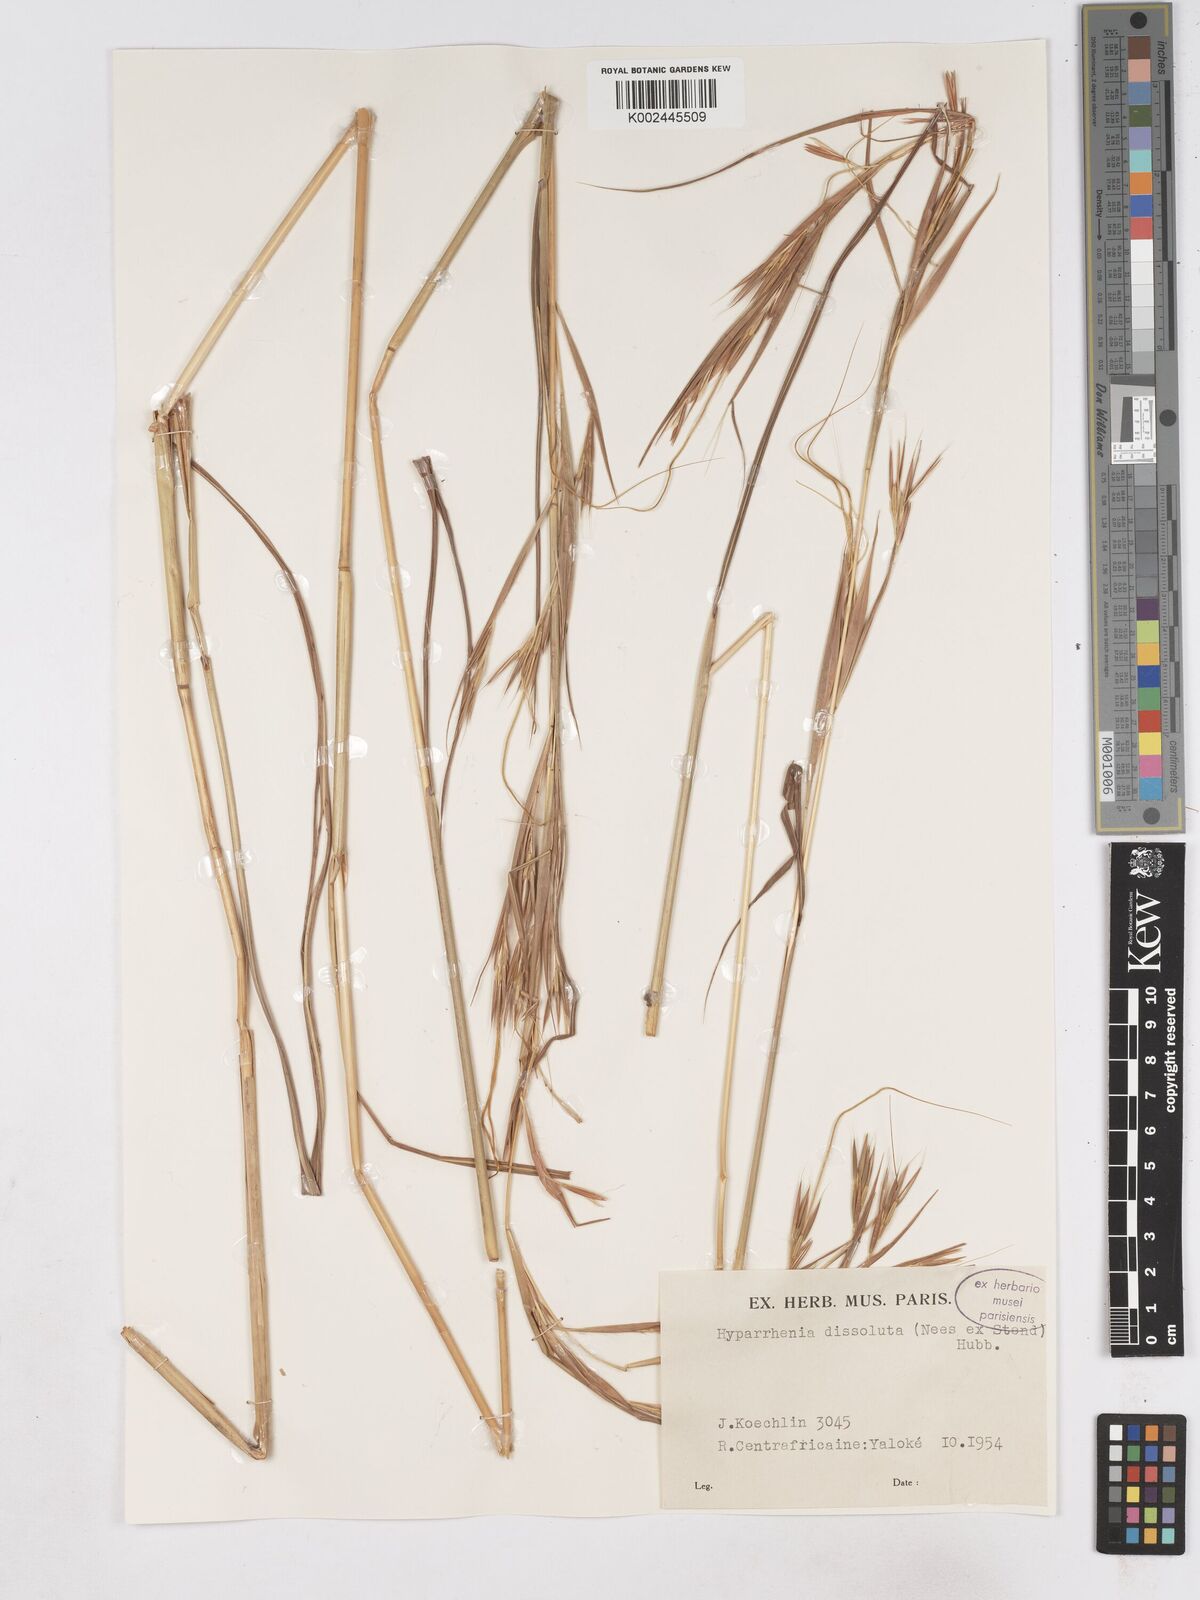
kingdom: Plantae
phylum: Tracheophyta
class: Liliopsida
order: Poales
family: Poaceae
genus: Hyperthelia
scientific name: Hyperthelia dissoluta
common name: Yellow thatching grass
